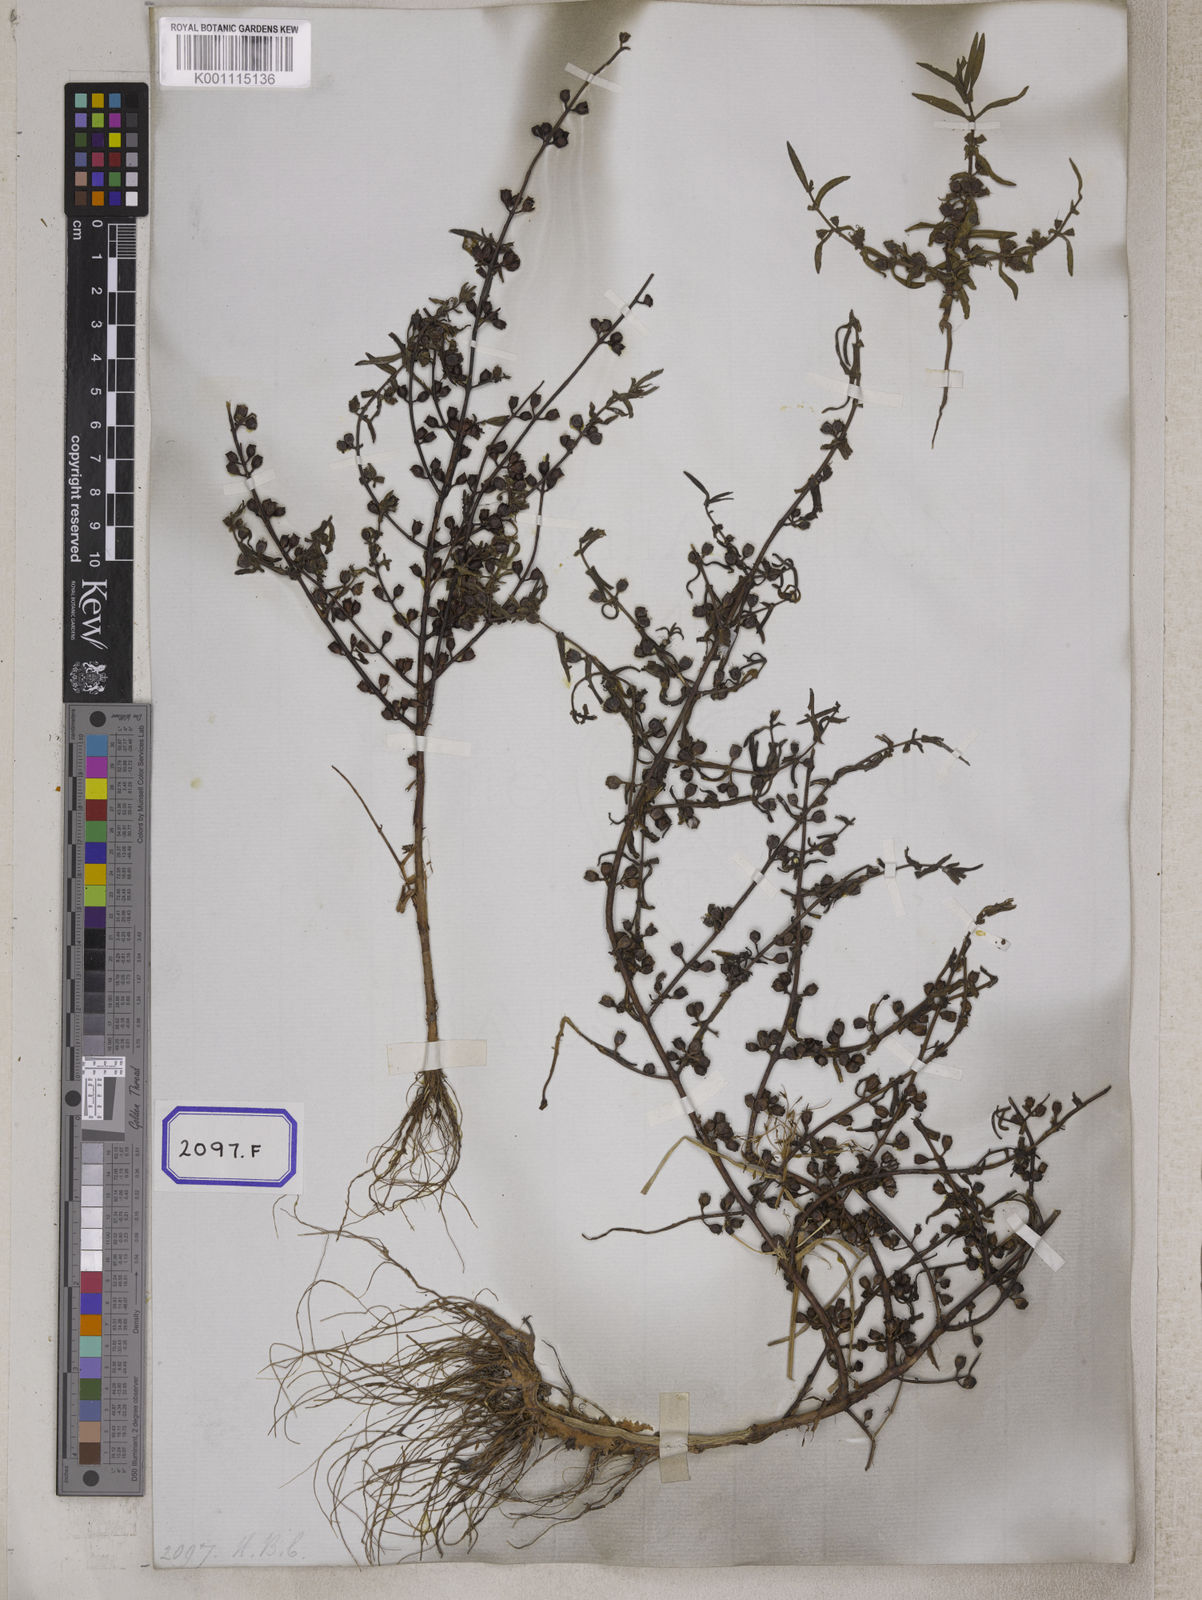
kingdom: Plantae
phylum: Tracheophyta
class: Magnoliopsida
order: Myrtales
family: Lythraceae
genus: Ammannia
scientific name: Ammannia octandra
